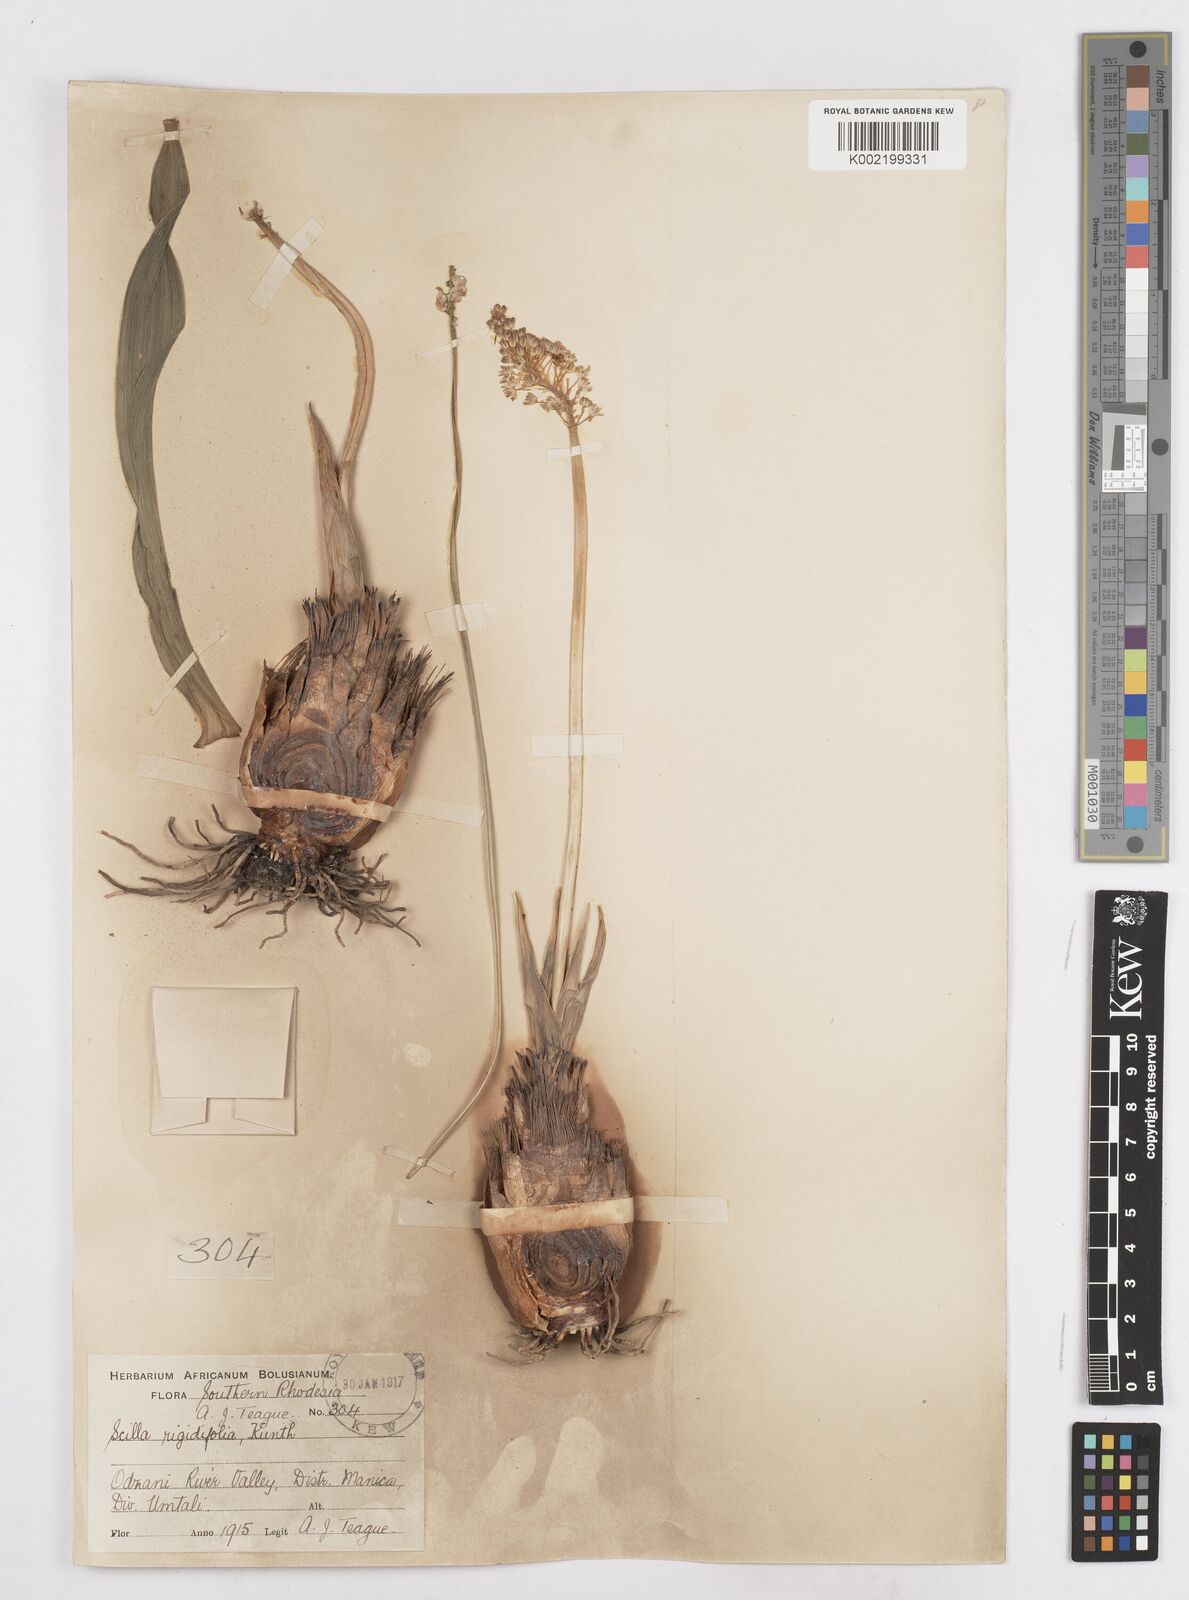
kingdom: Plantae
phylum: Tracheophyta
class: Liliopsida
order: Asparagales
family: Asparagaceae
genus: Schizocarphus
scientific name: Schizocarphus nervosus
